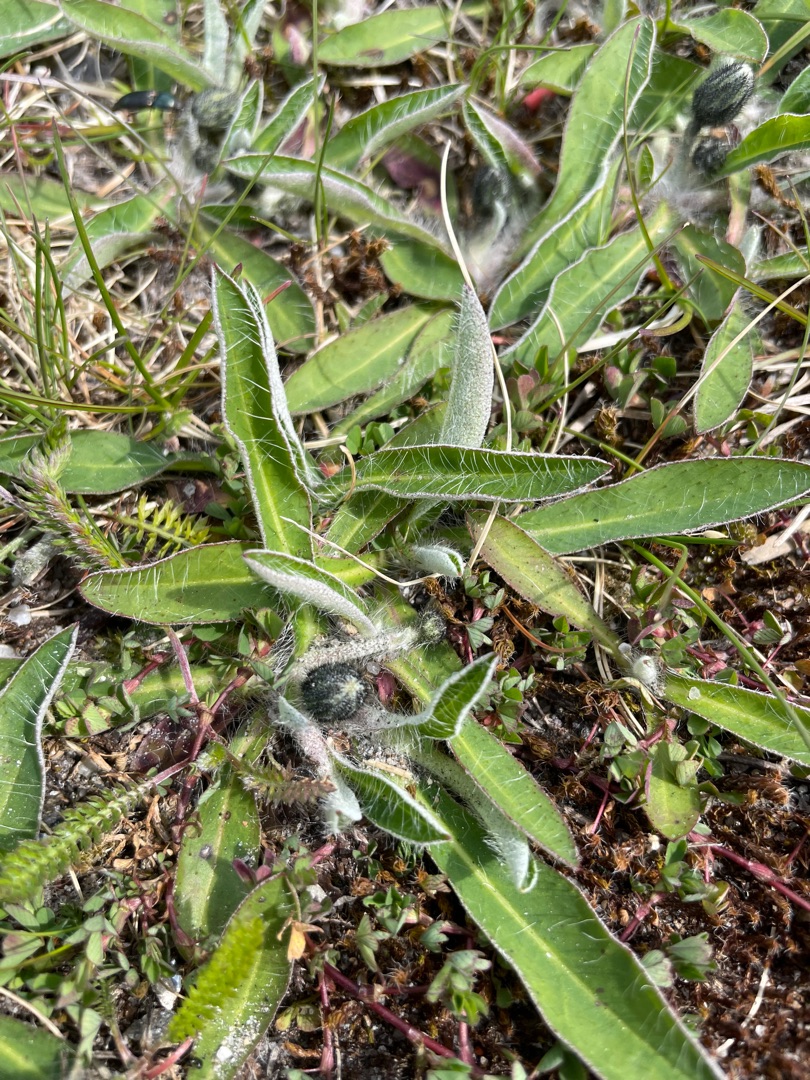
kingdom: Plantae
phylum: Tracheophyta
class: Magnoliopsida
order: Asterales
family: Asteraceae
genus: Pilosella
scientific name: Pilosella officinarum
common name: Håret høgeurt
